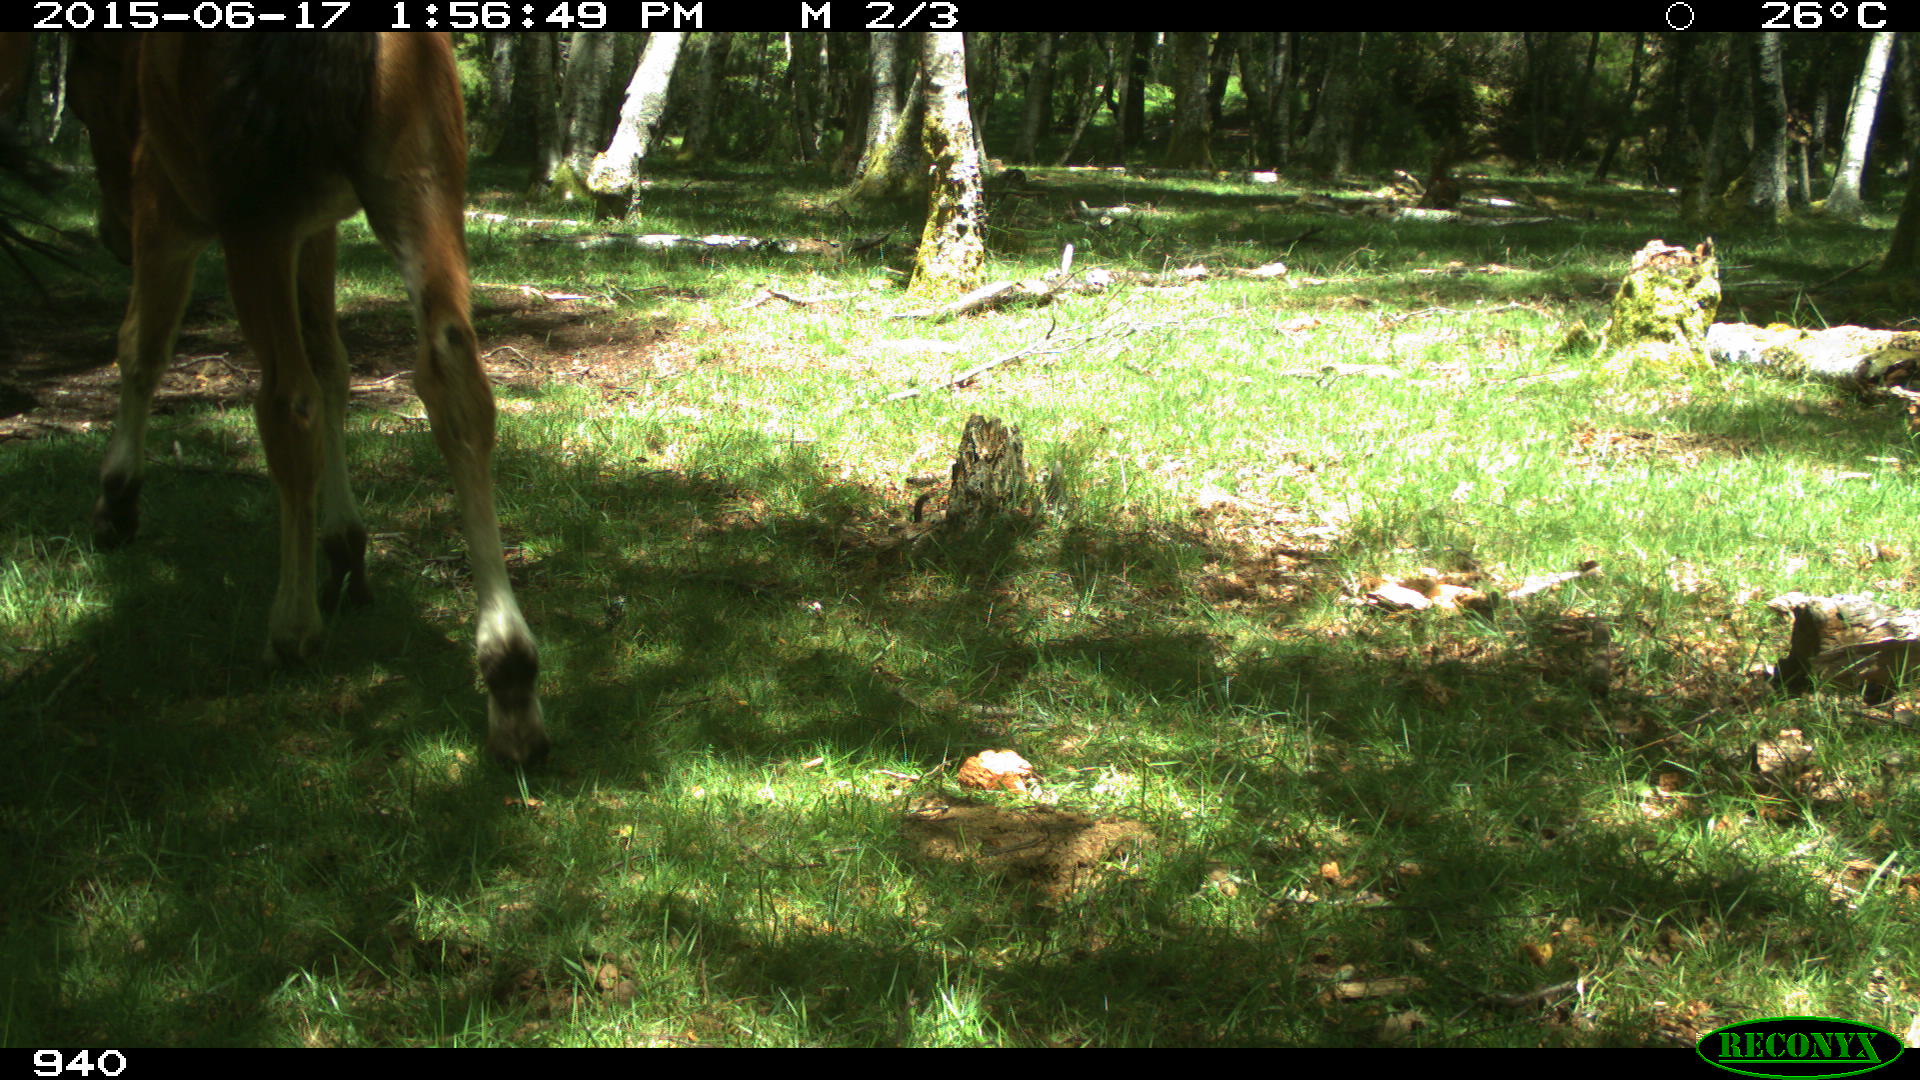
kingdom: Animalia
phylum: Chordata
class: Mammalia
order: Perissodactyla
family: Equidae
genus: Equus
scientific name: Equus caballus
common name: Horse
